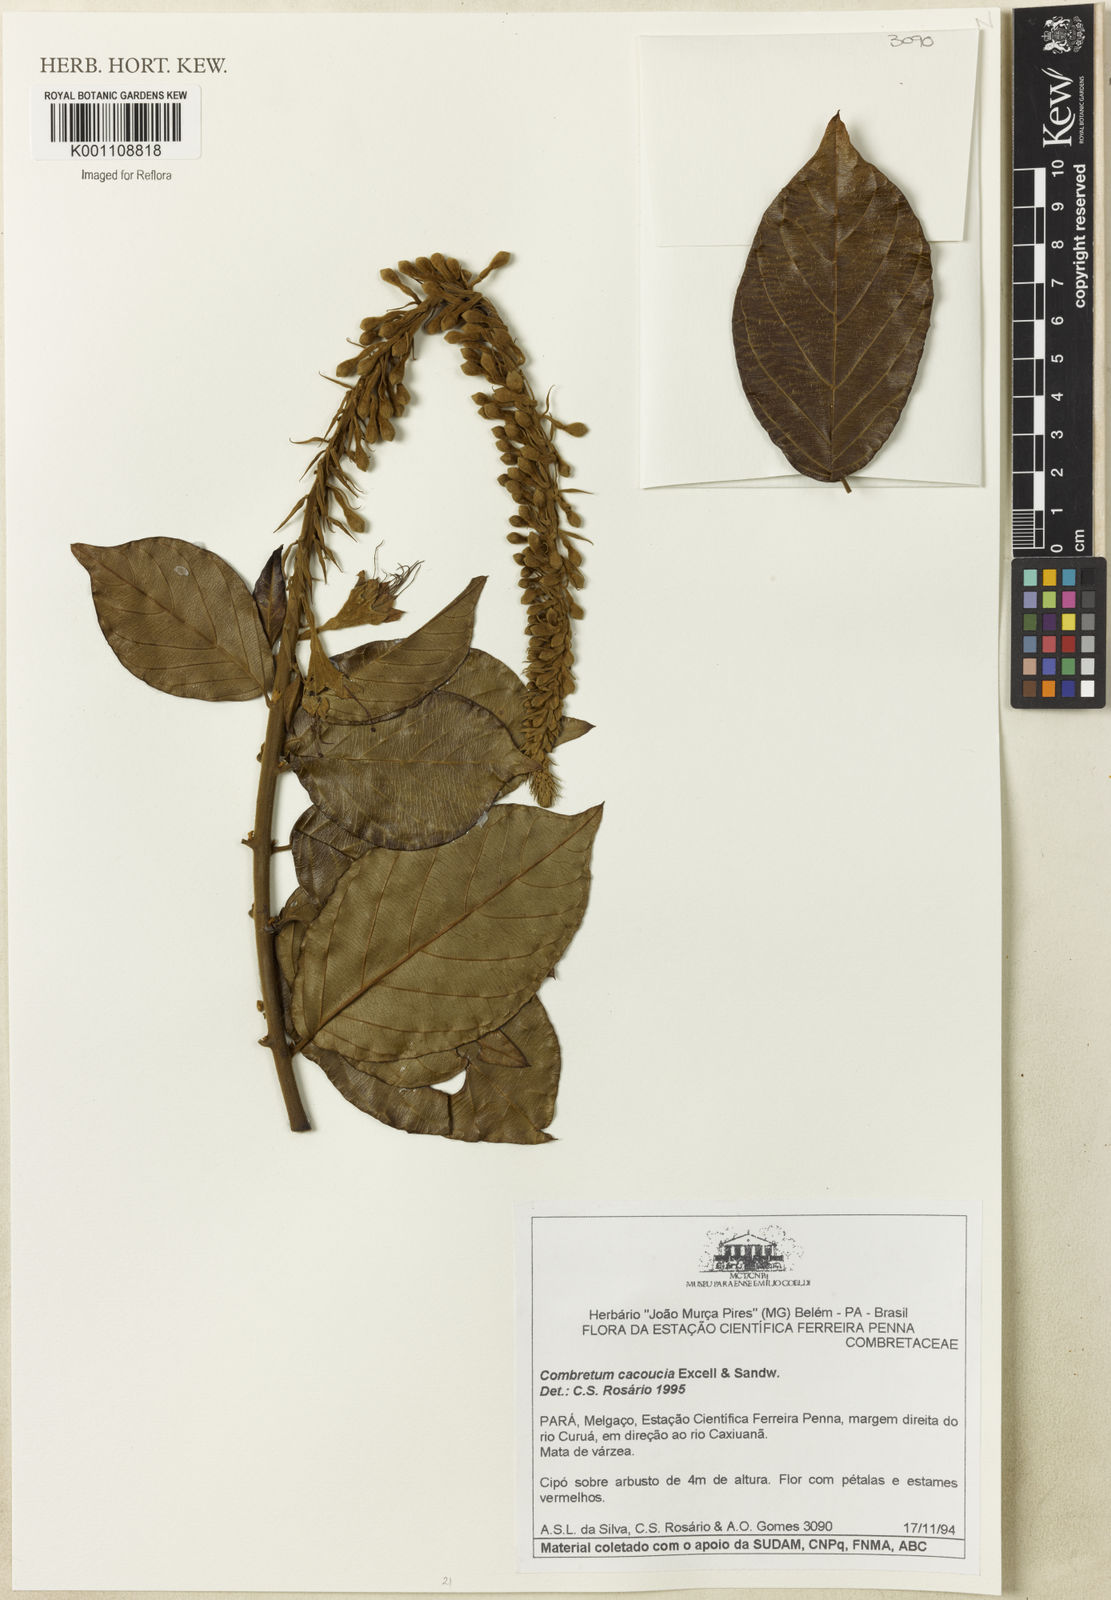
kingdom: Plantae
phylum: Tracheophyta
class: Magnoliopsida
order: Myrtales
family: Combretaceae
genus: Combretum
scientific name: Combretum
